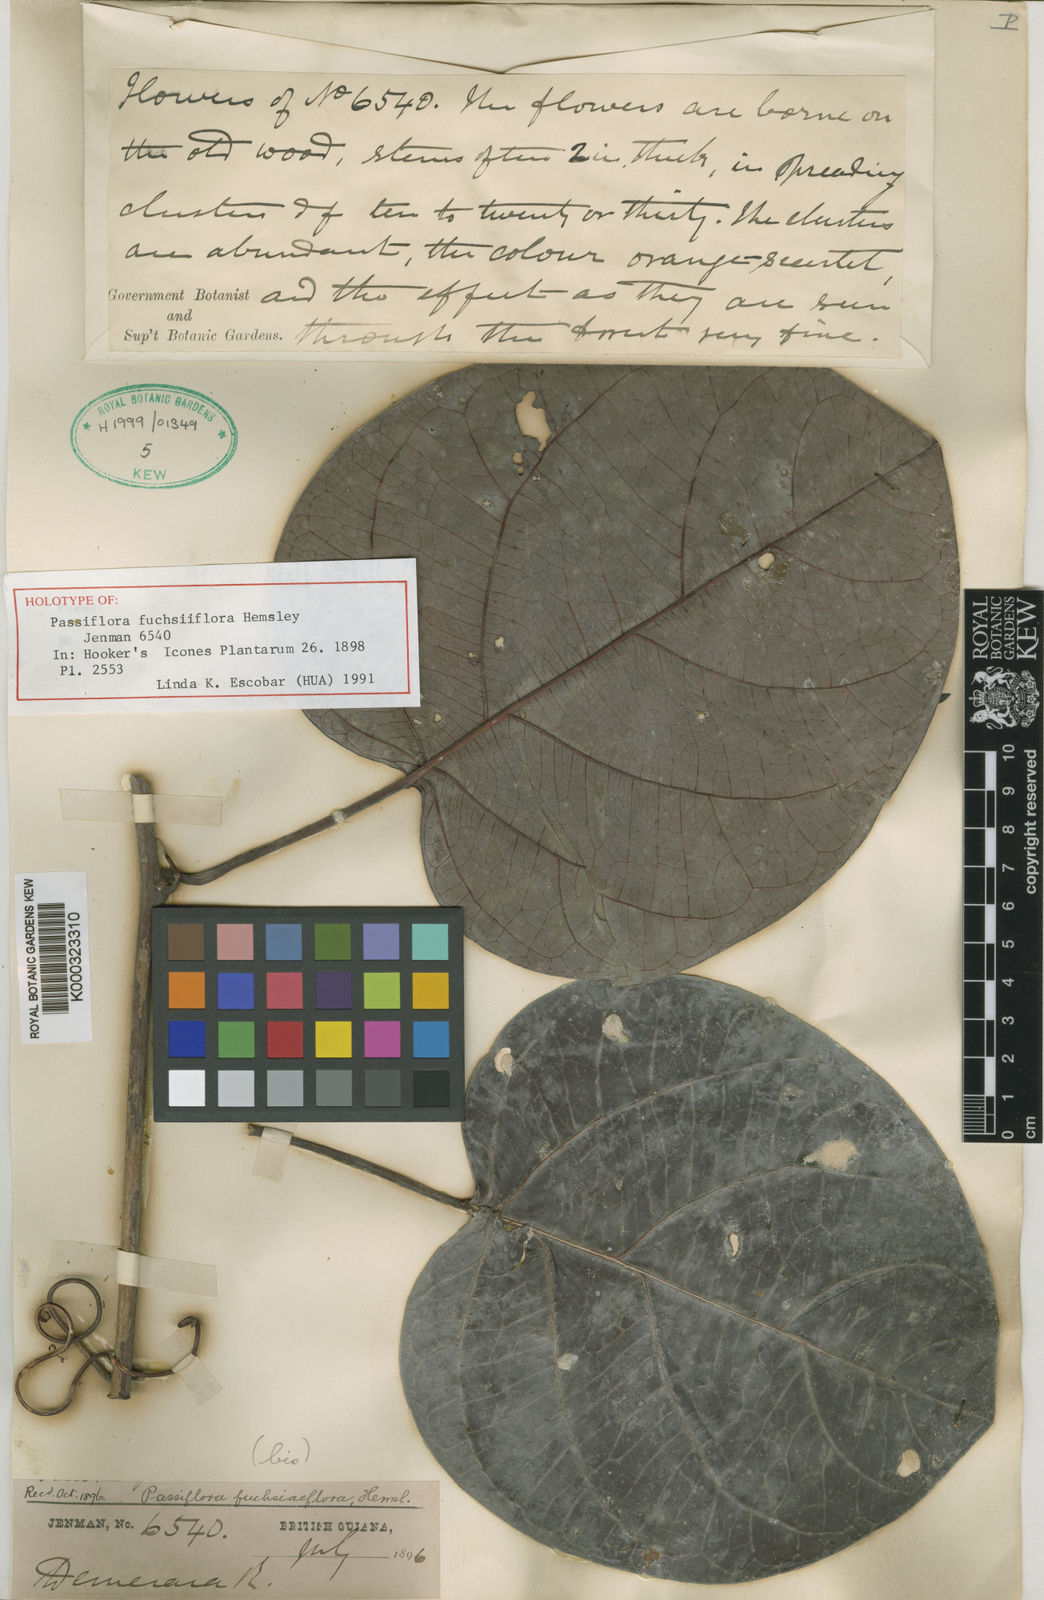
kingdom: Plantae
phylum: Tracheophyta
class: Magnoliopsida
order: Malpighiales
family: Passifloraceae
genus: Passiflora
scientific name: Passiflora fuchsiiflora
